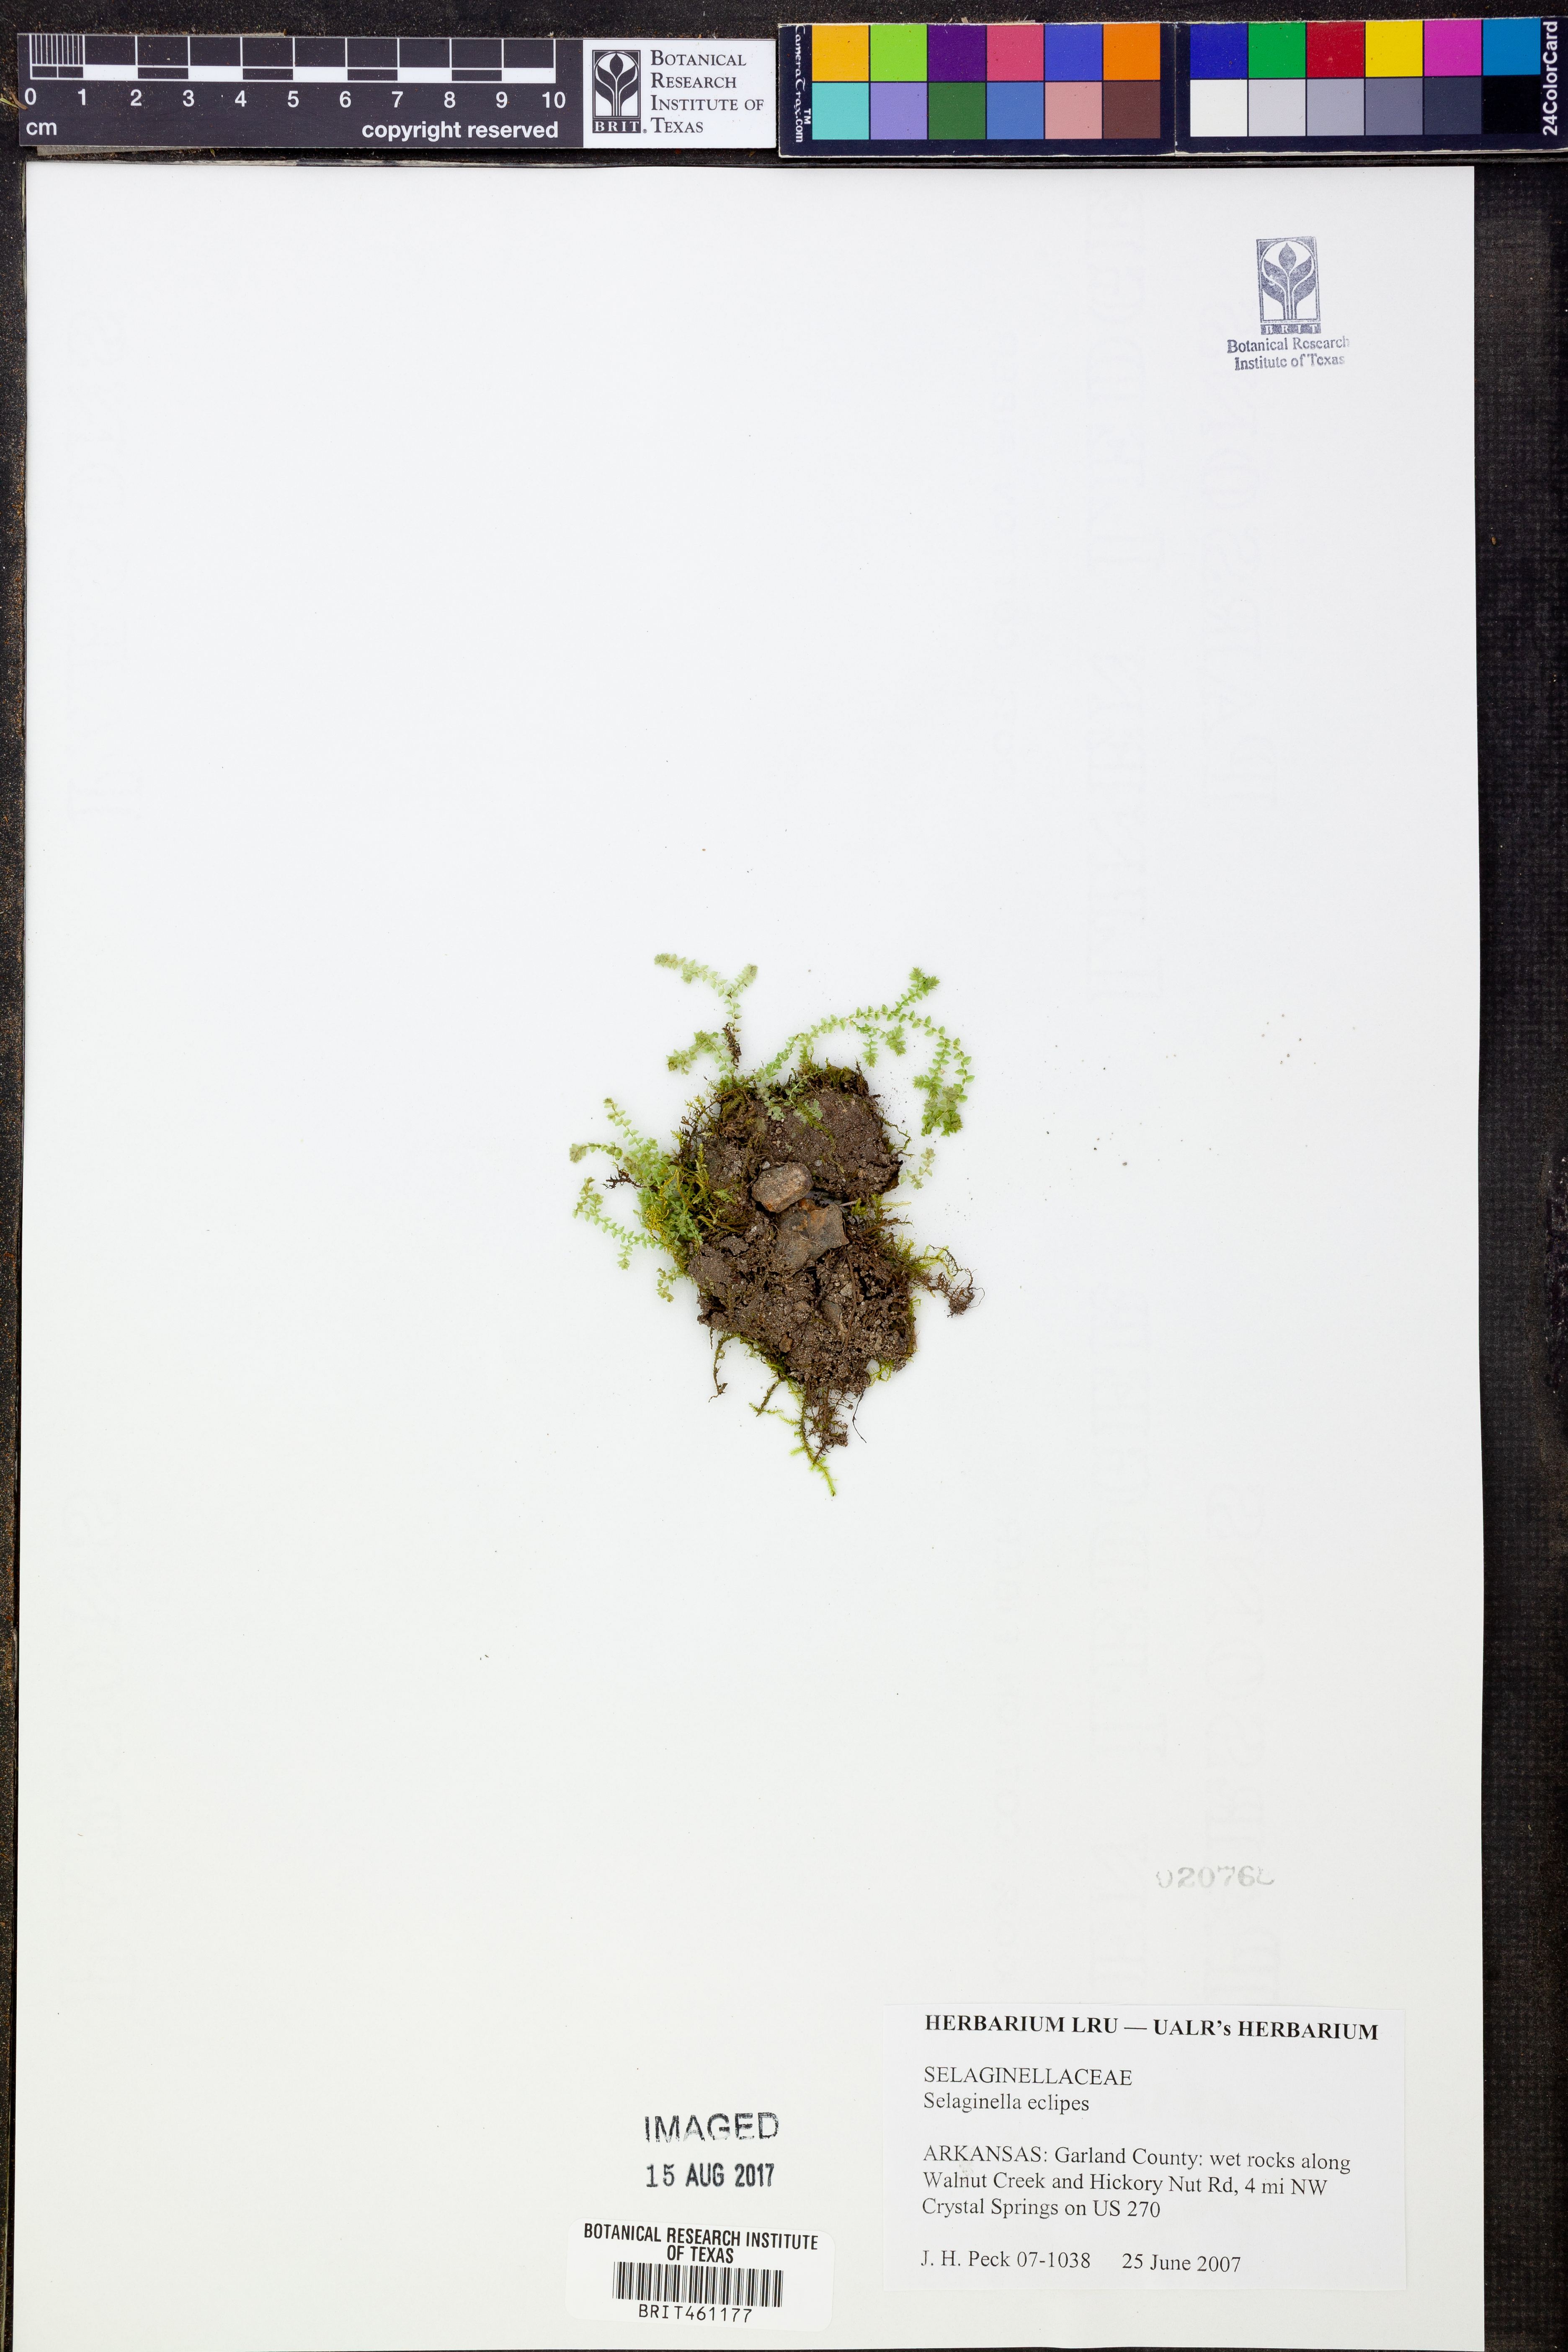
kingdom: Plantae
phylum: Tracheophyta
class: Lycopodiopsida
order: Selaginellales
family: Selaginellaceae
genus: Selaginella
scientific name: Selaginella eclipes
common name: Buck's meadow spikemoss
